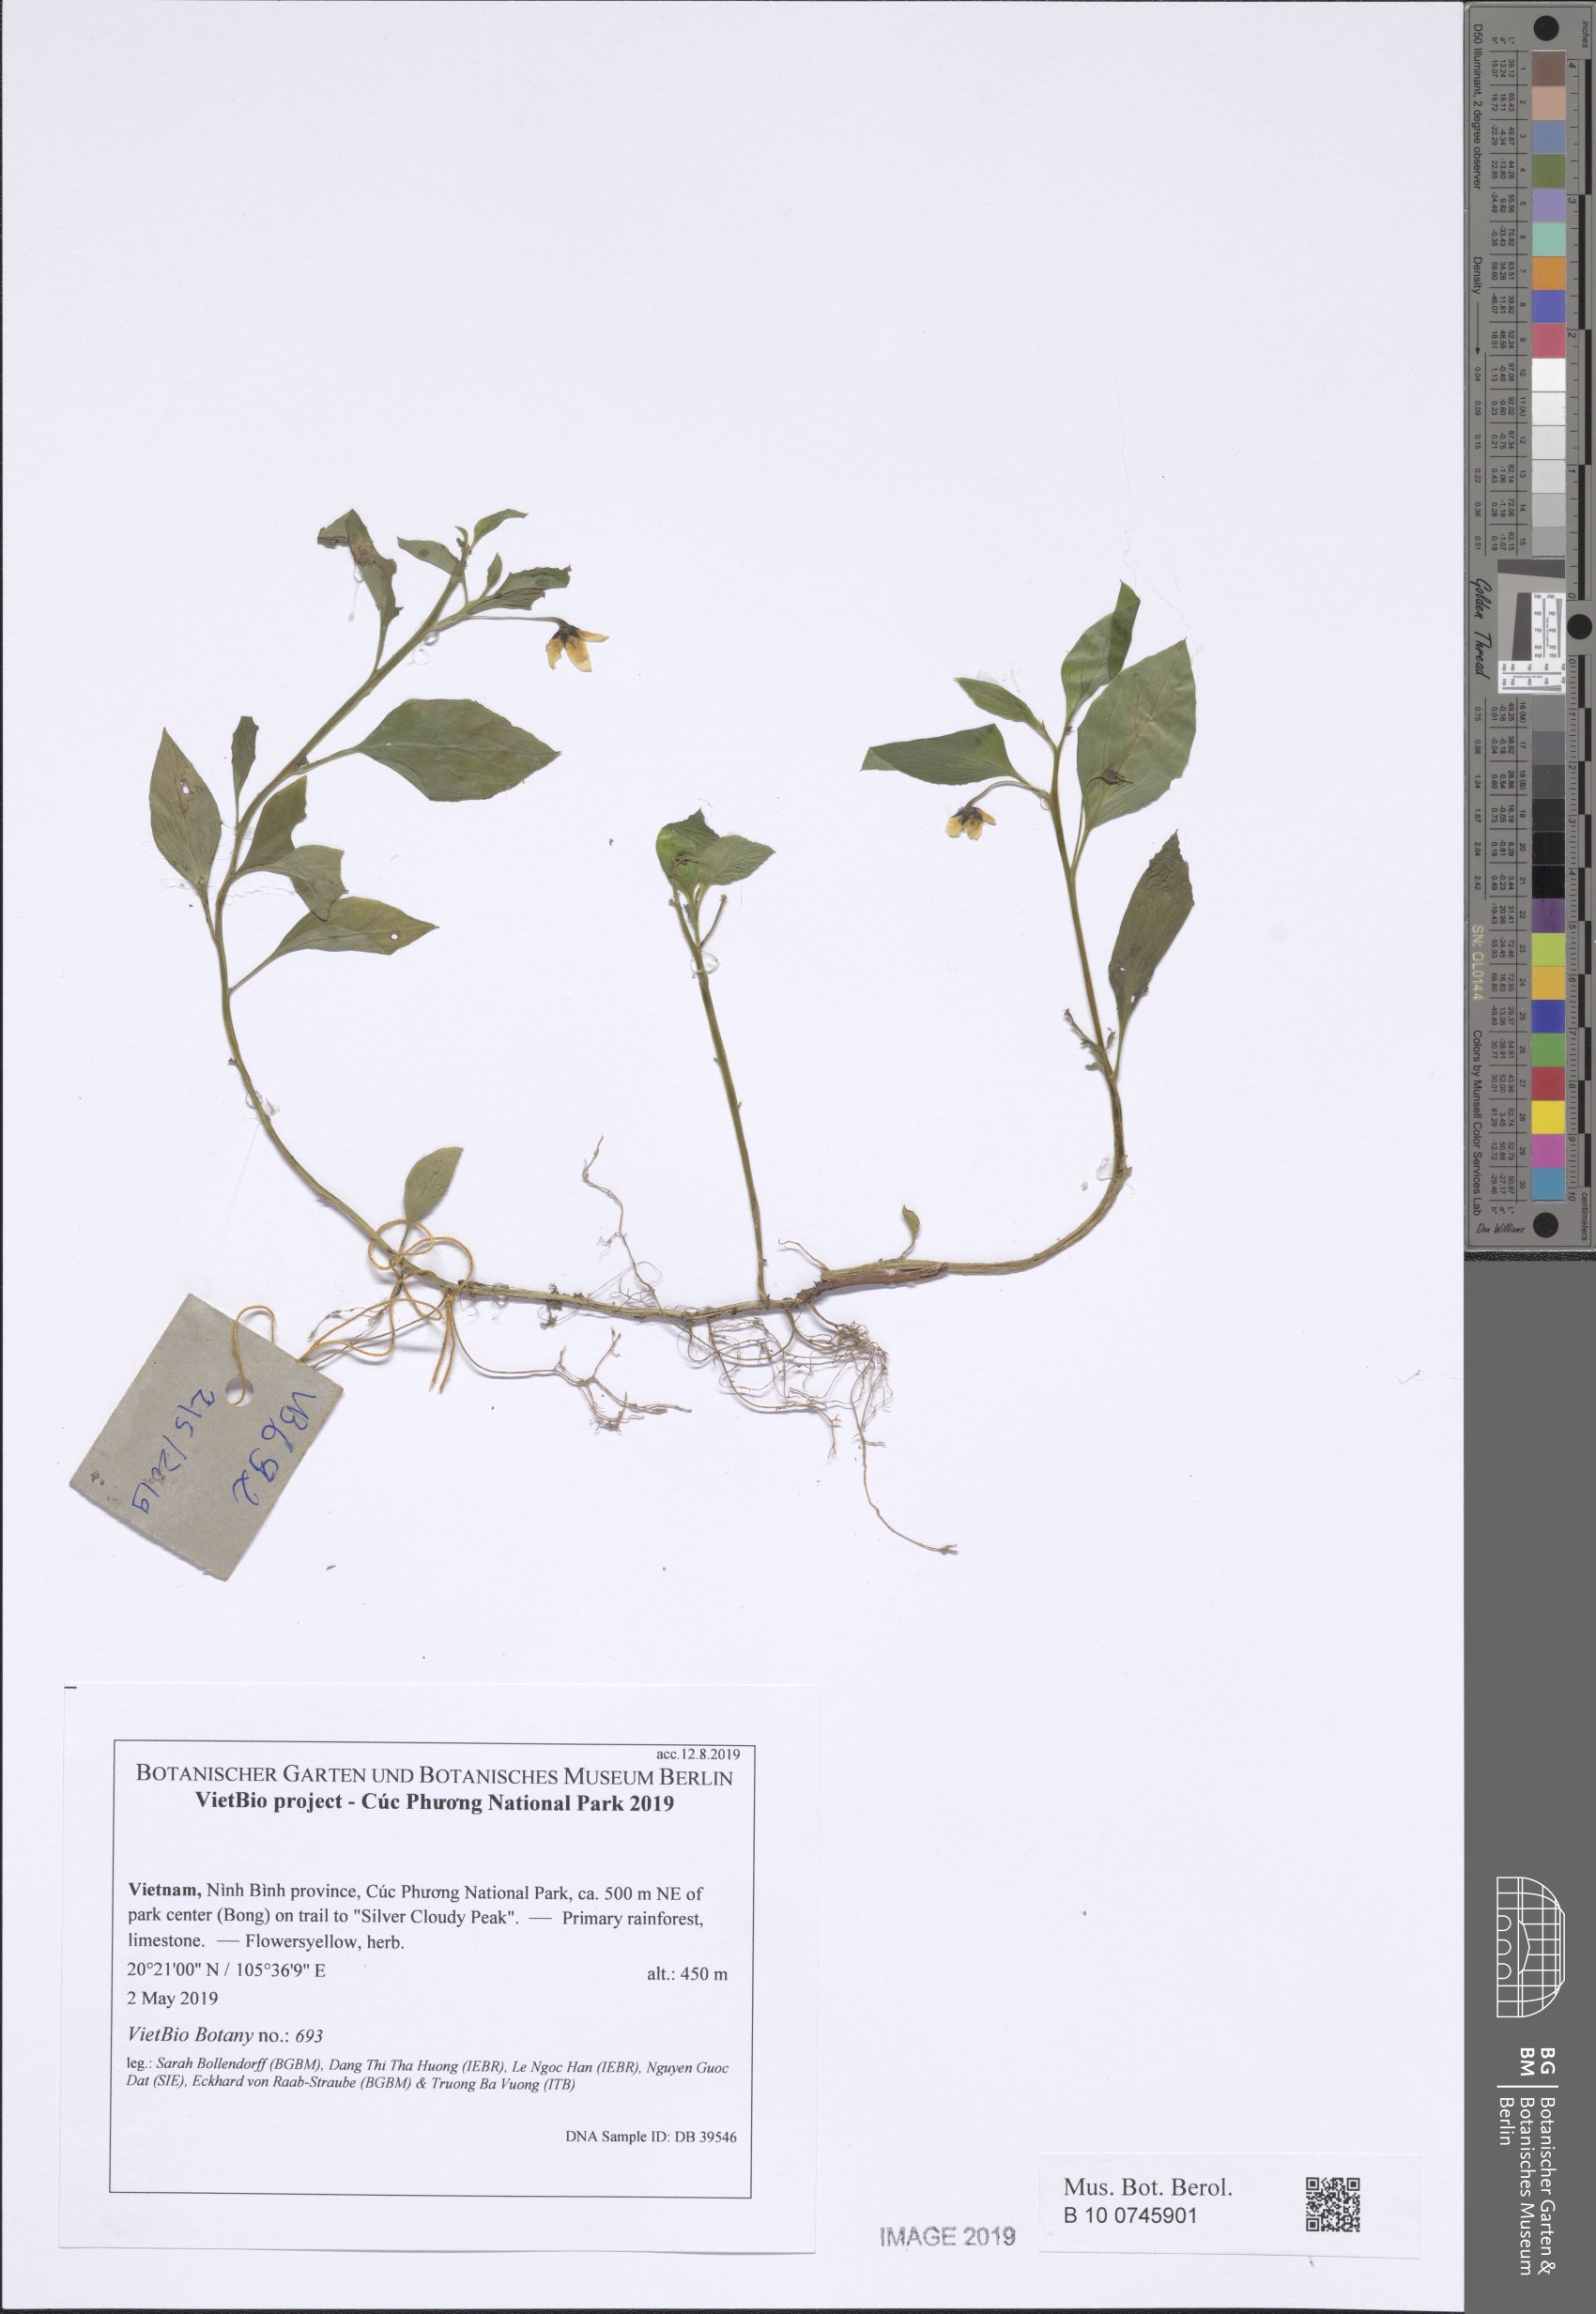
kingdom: Plantae
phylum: Tracheophyta
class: Magnoliopsida
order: Ericales
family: Primulaceae
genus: Lysimachia
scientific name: Lysimachia petelotii
